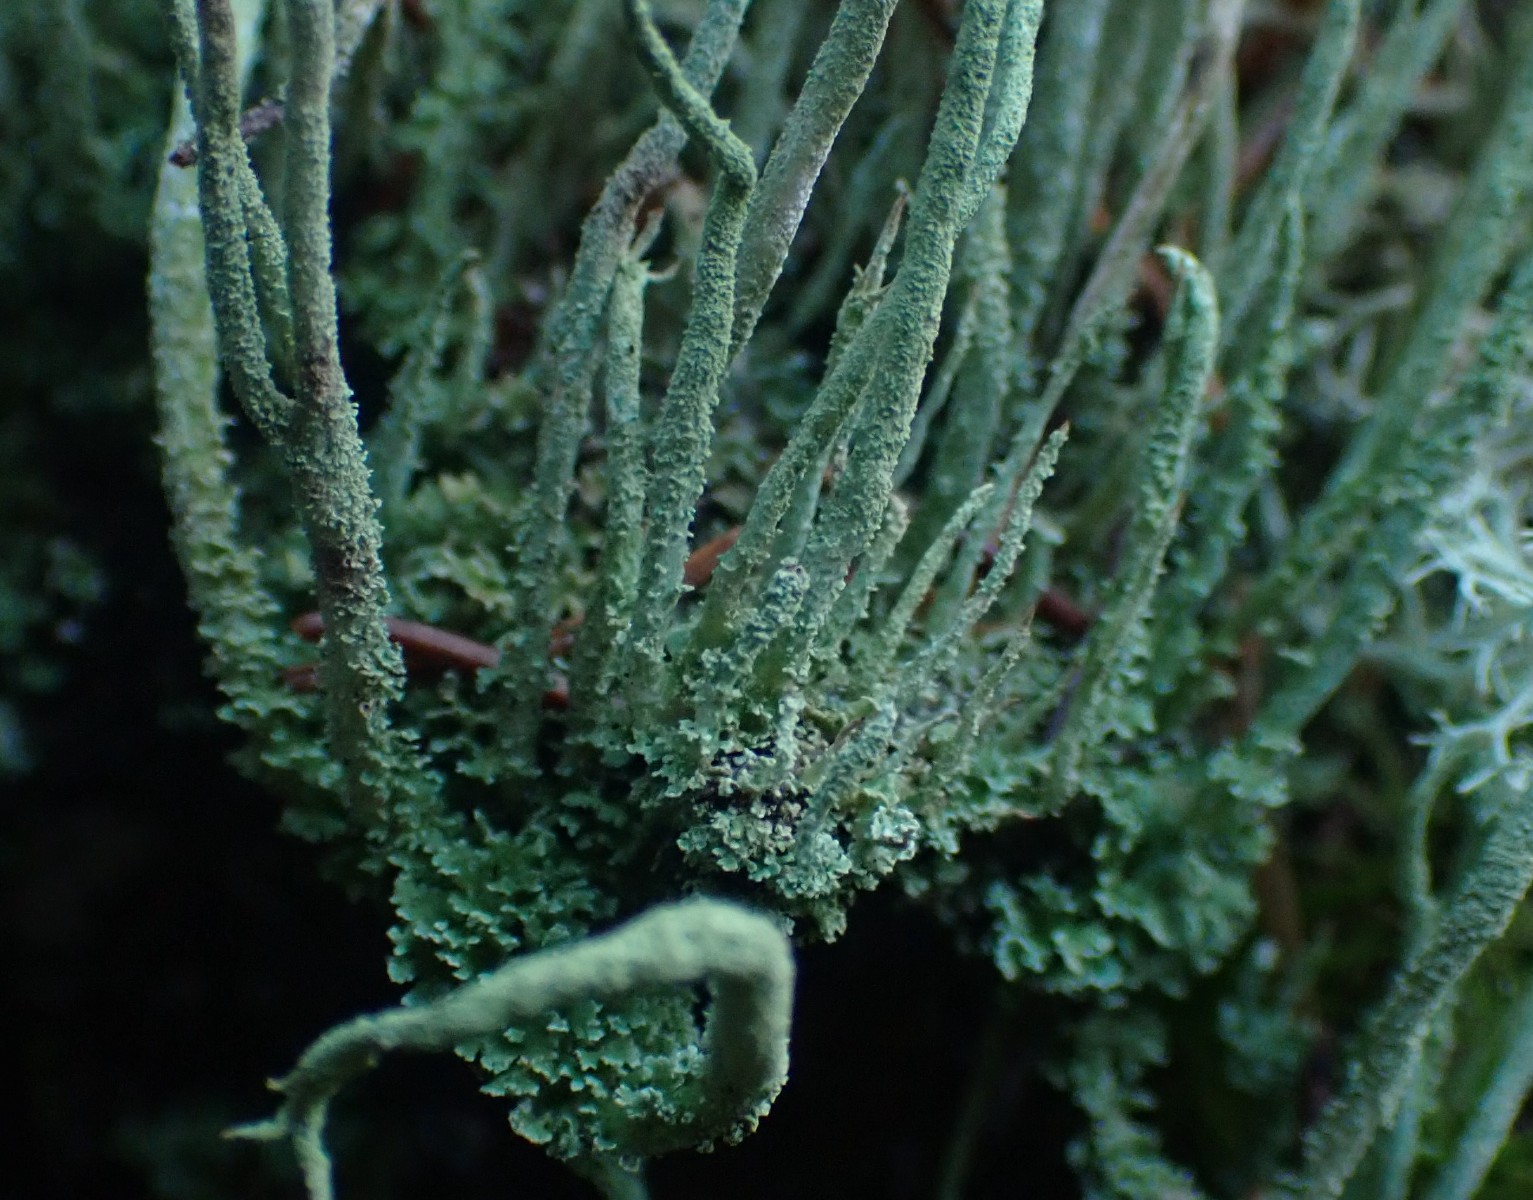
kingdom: Fungi
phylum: Ascomycota
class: Lecanoromycetes
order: Lecanorales
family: Cladoniaceae
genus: Cladonia
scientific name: Cladonia glauca
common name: grågrøn bægerlav
